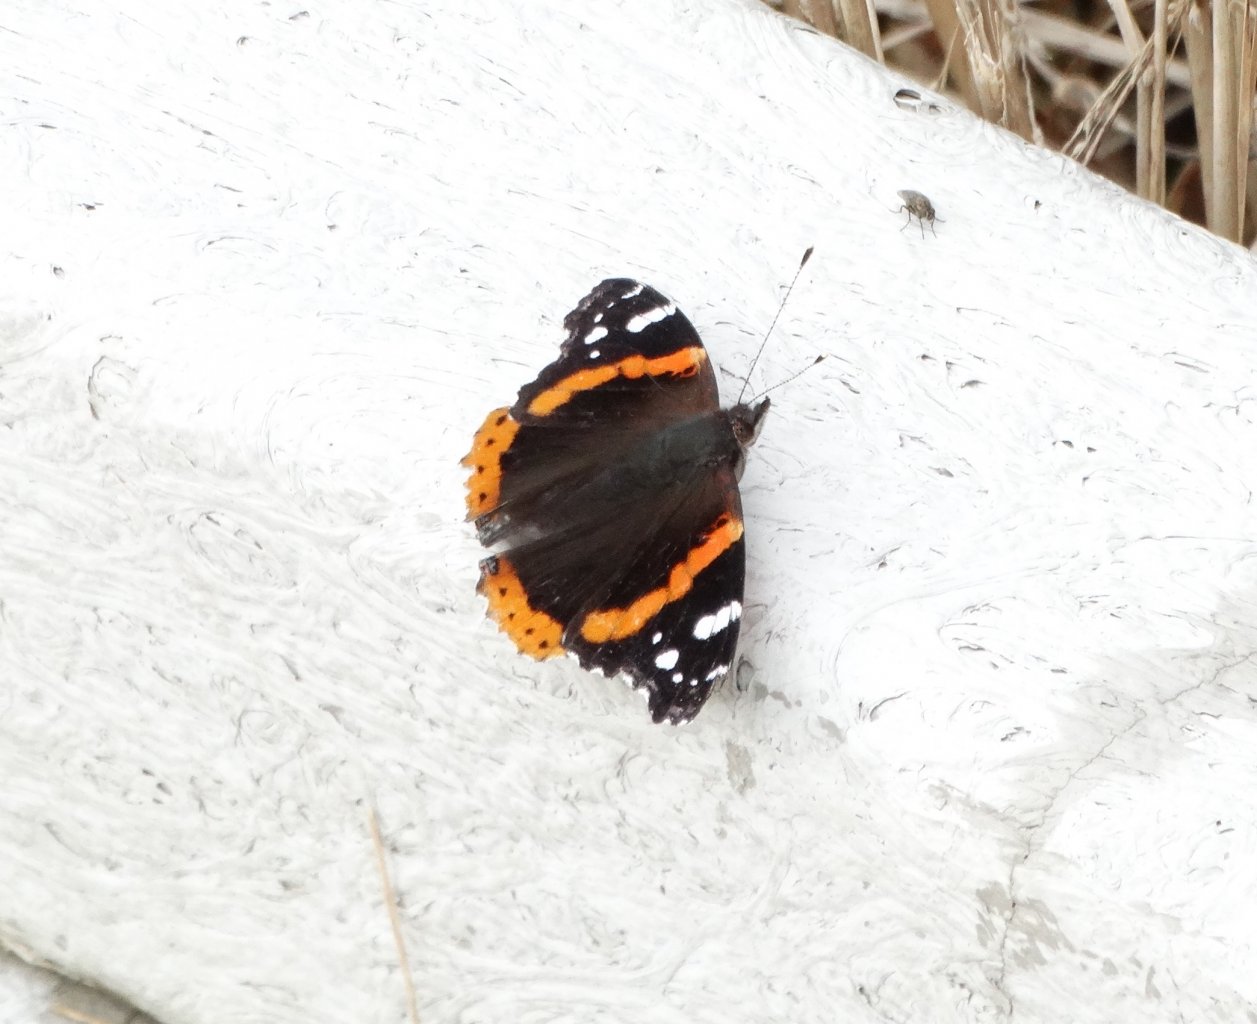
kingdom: Animalia
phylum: Arthropoda
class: Insecta
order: Lepidoptera
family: Nymphalidae
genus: Vanessa
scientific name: Vanessa atalanta
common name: Red Admiral
